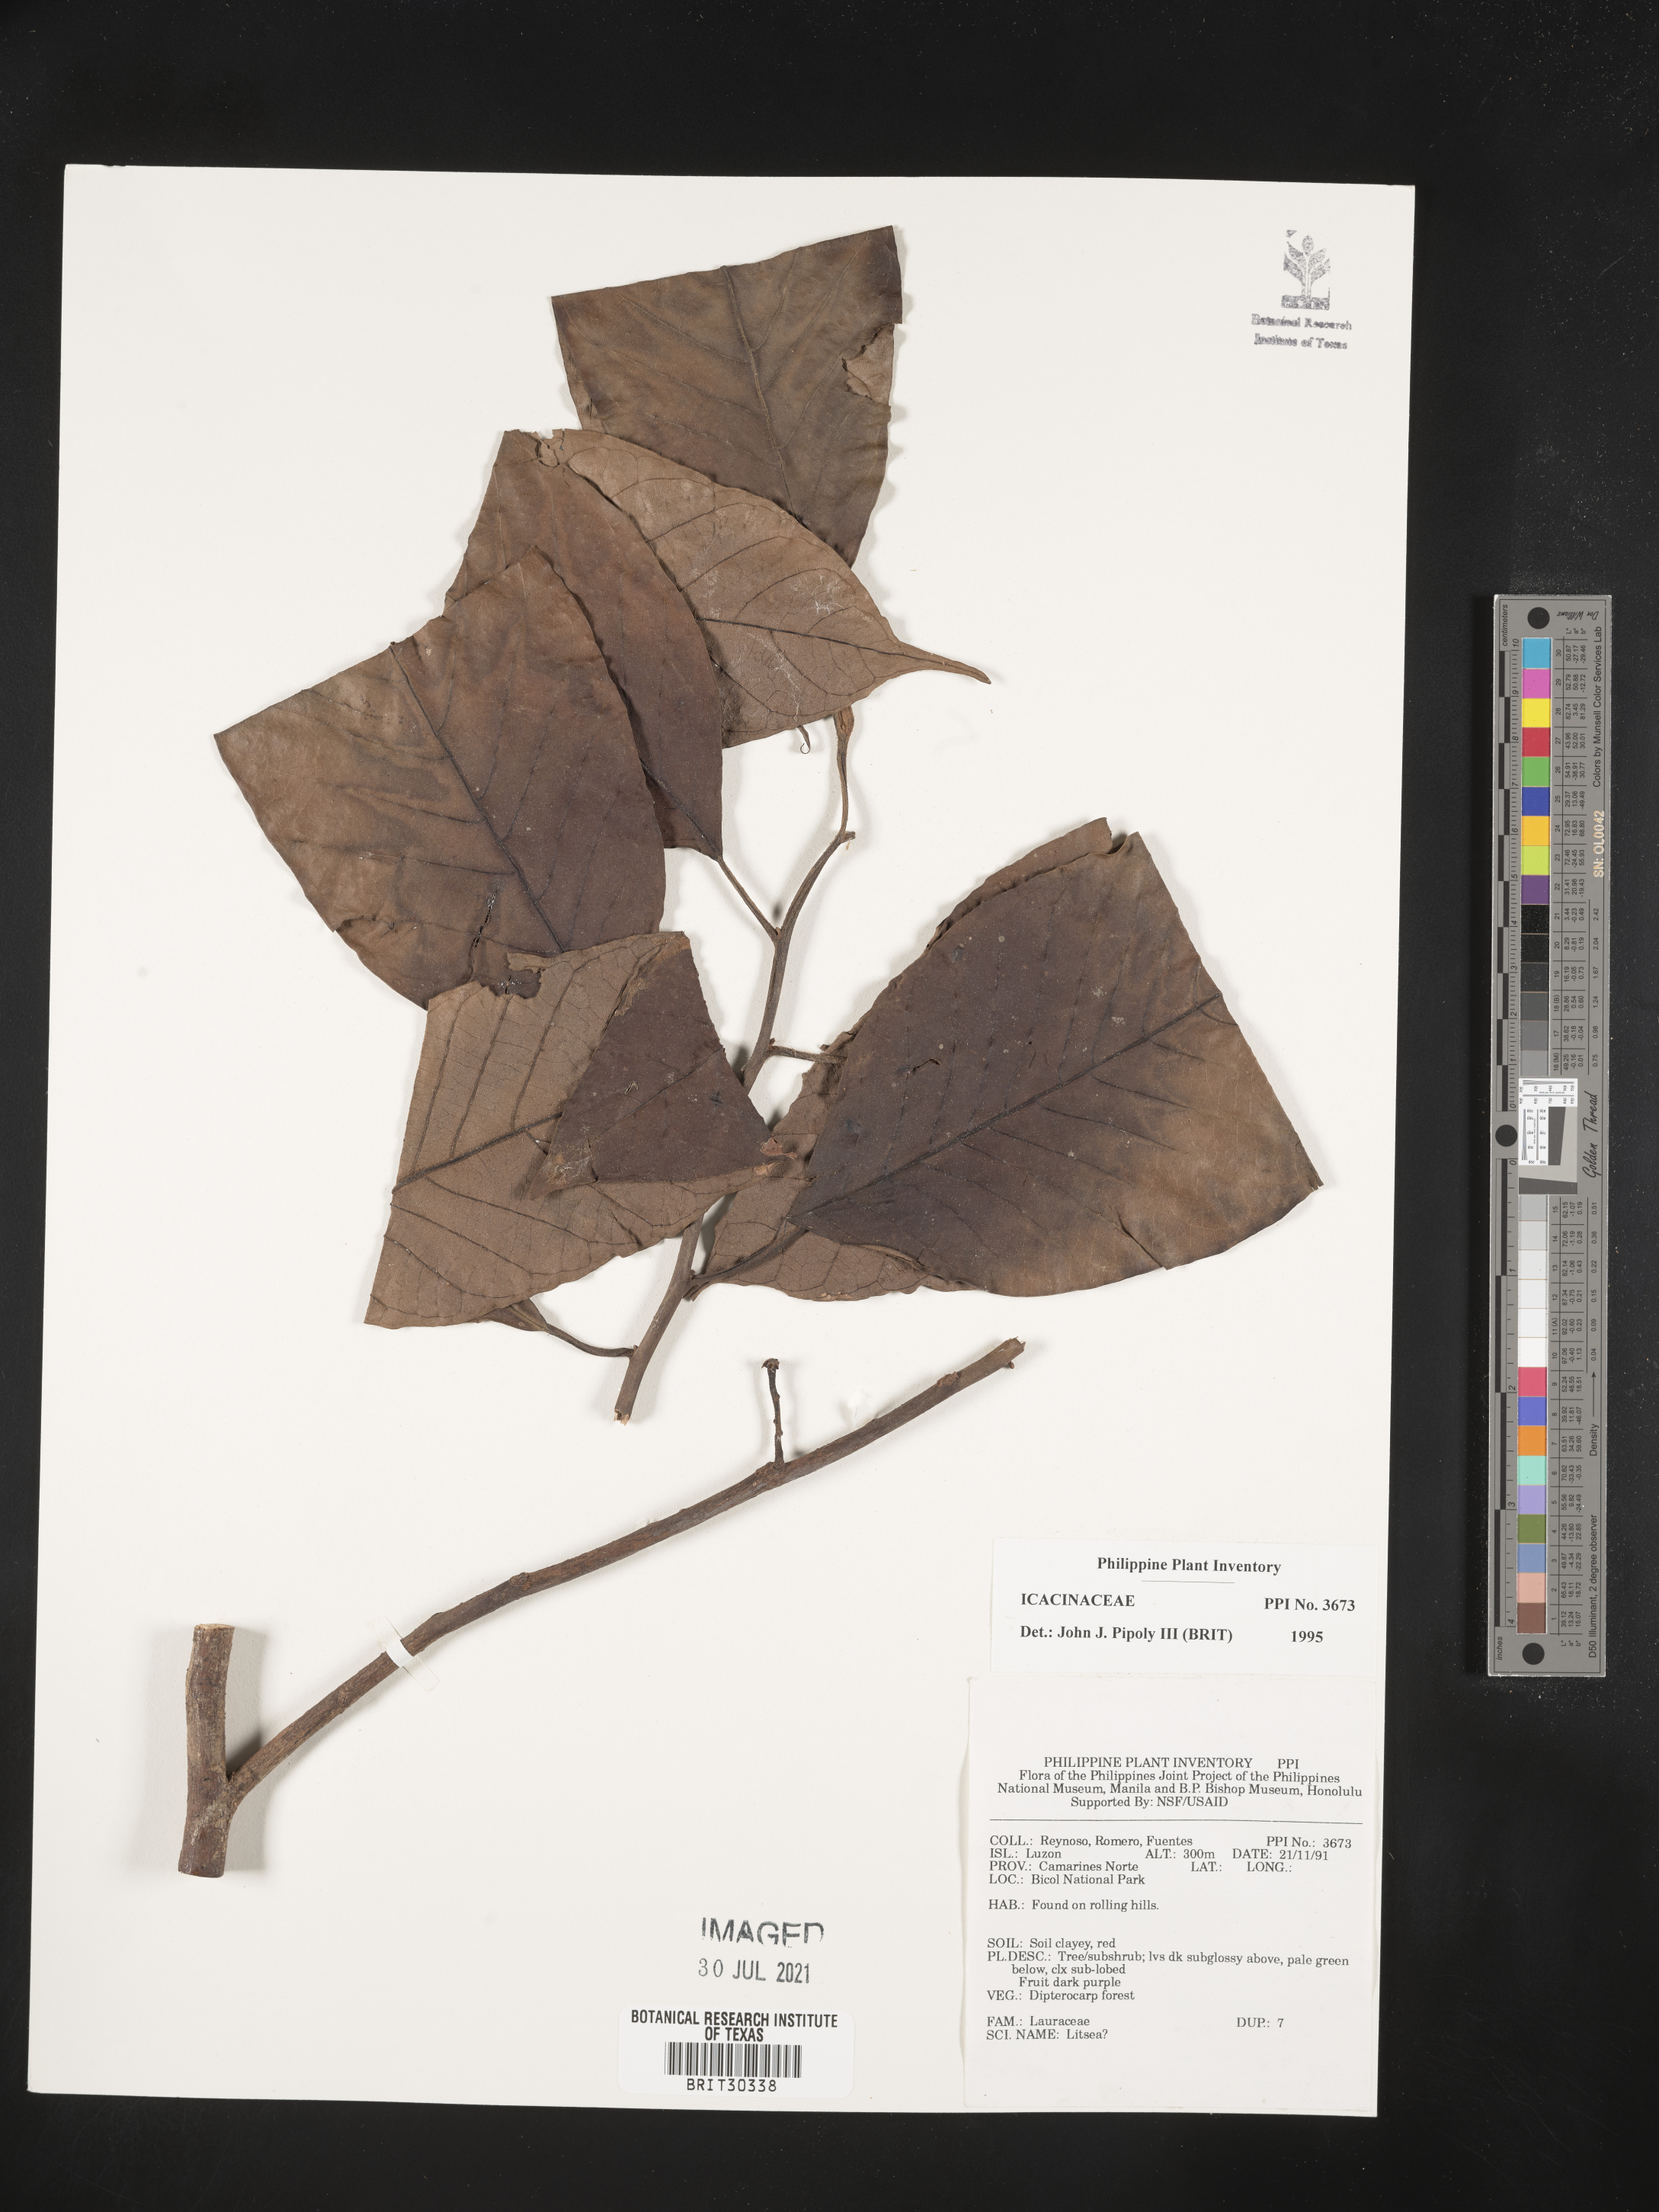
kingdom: Plantae
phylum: Tracheophyta
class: Magnoliopsida
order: Icacinales
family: Icacinaceae
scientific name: Icacinaceae
